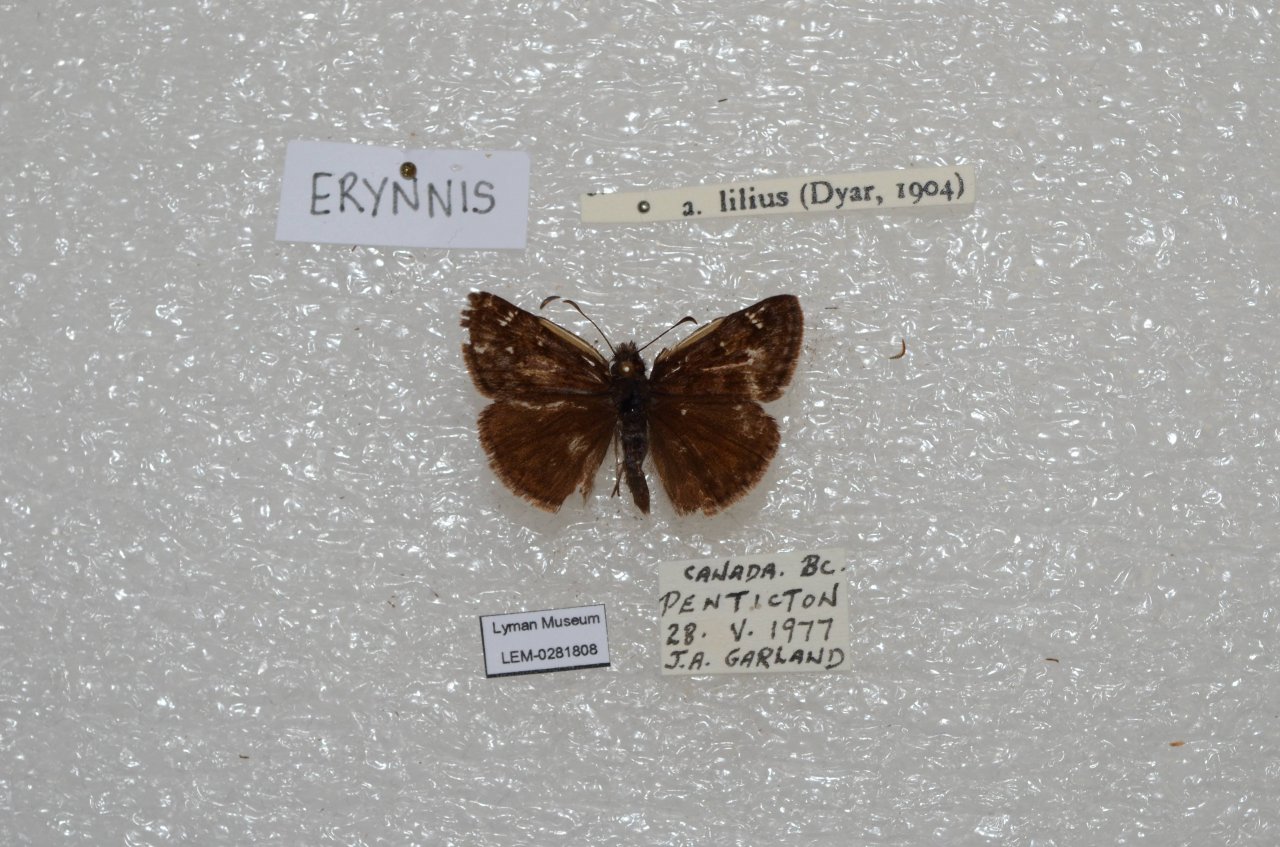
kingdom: Animalia
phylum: Arthropoda
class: Insecta
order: Lepidoptera
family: Hesperiidae
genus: Erynnis
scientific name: Erynnis pacuvius
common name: Pacuvius Duskywing
